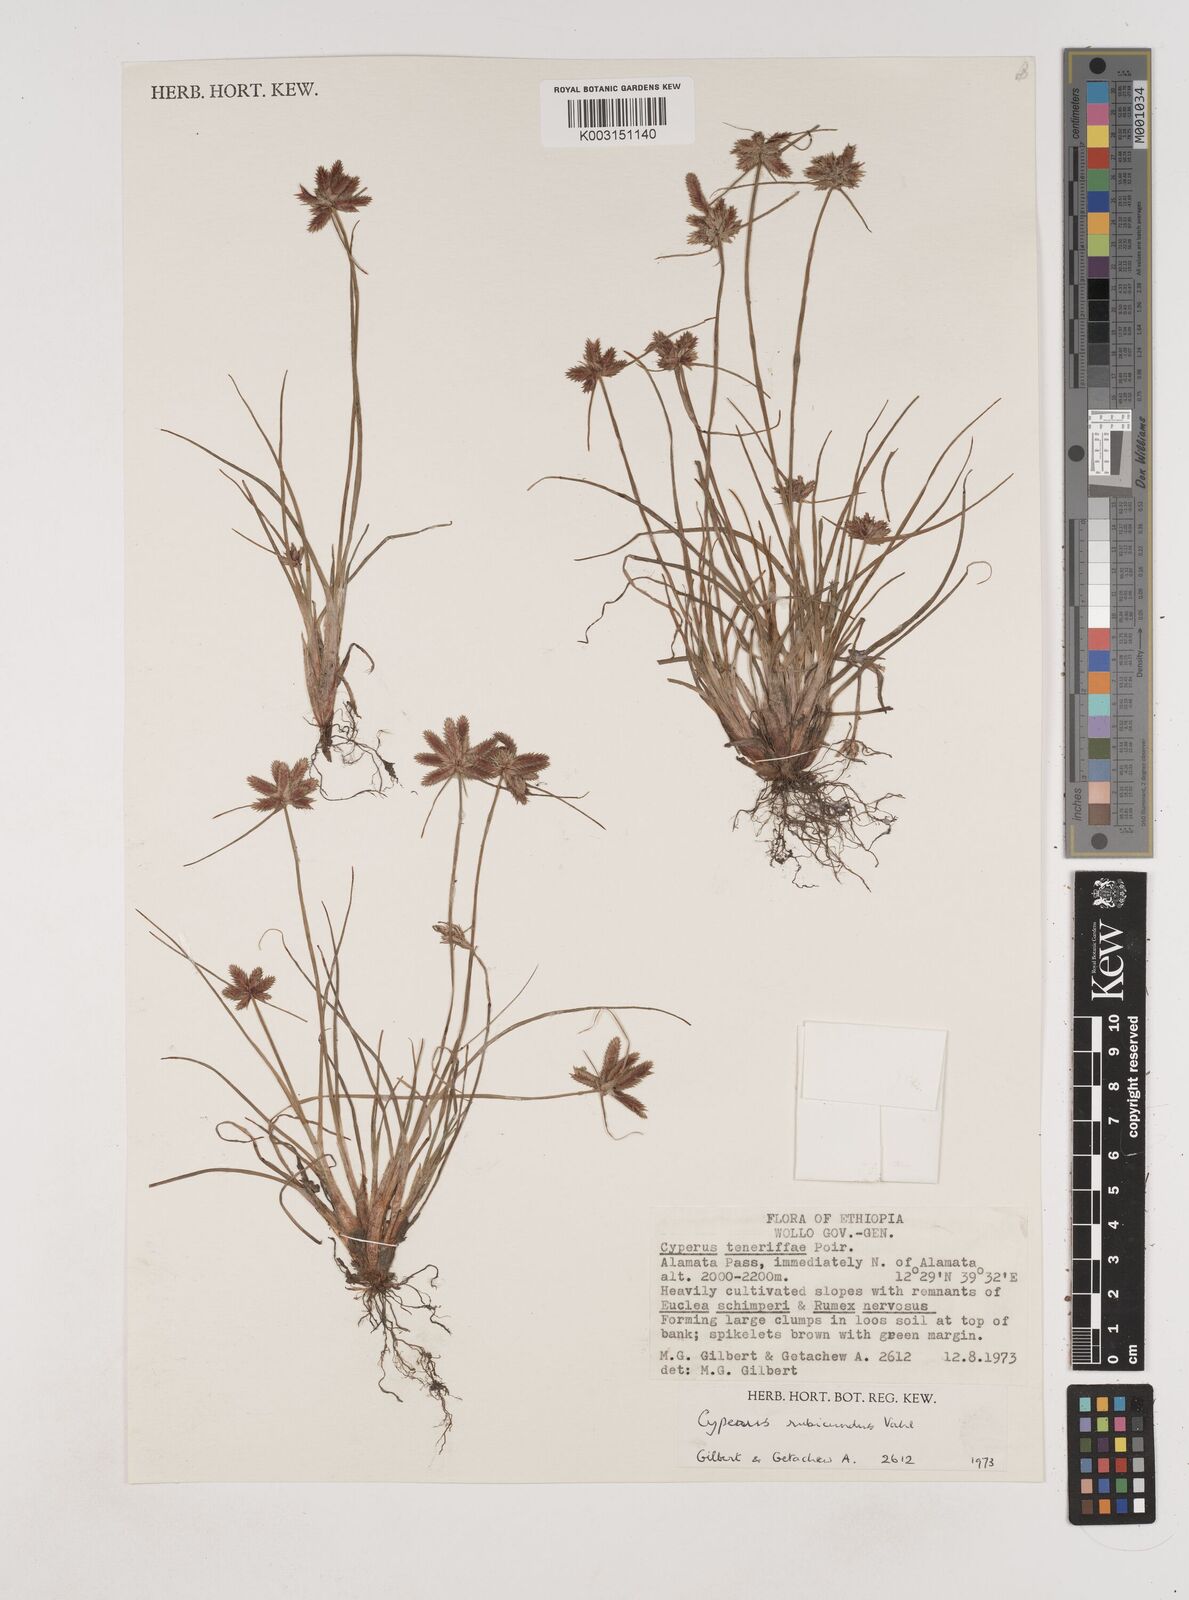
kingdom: Plantae
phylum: Tracheophyta
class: Liliopsida
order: Poales
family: Cyperaceae
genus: Cyperus
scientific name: Cyperus rubicundus
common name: Coco-grass
